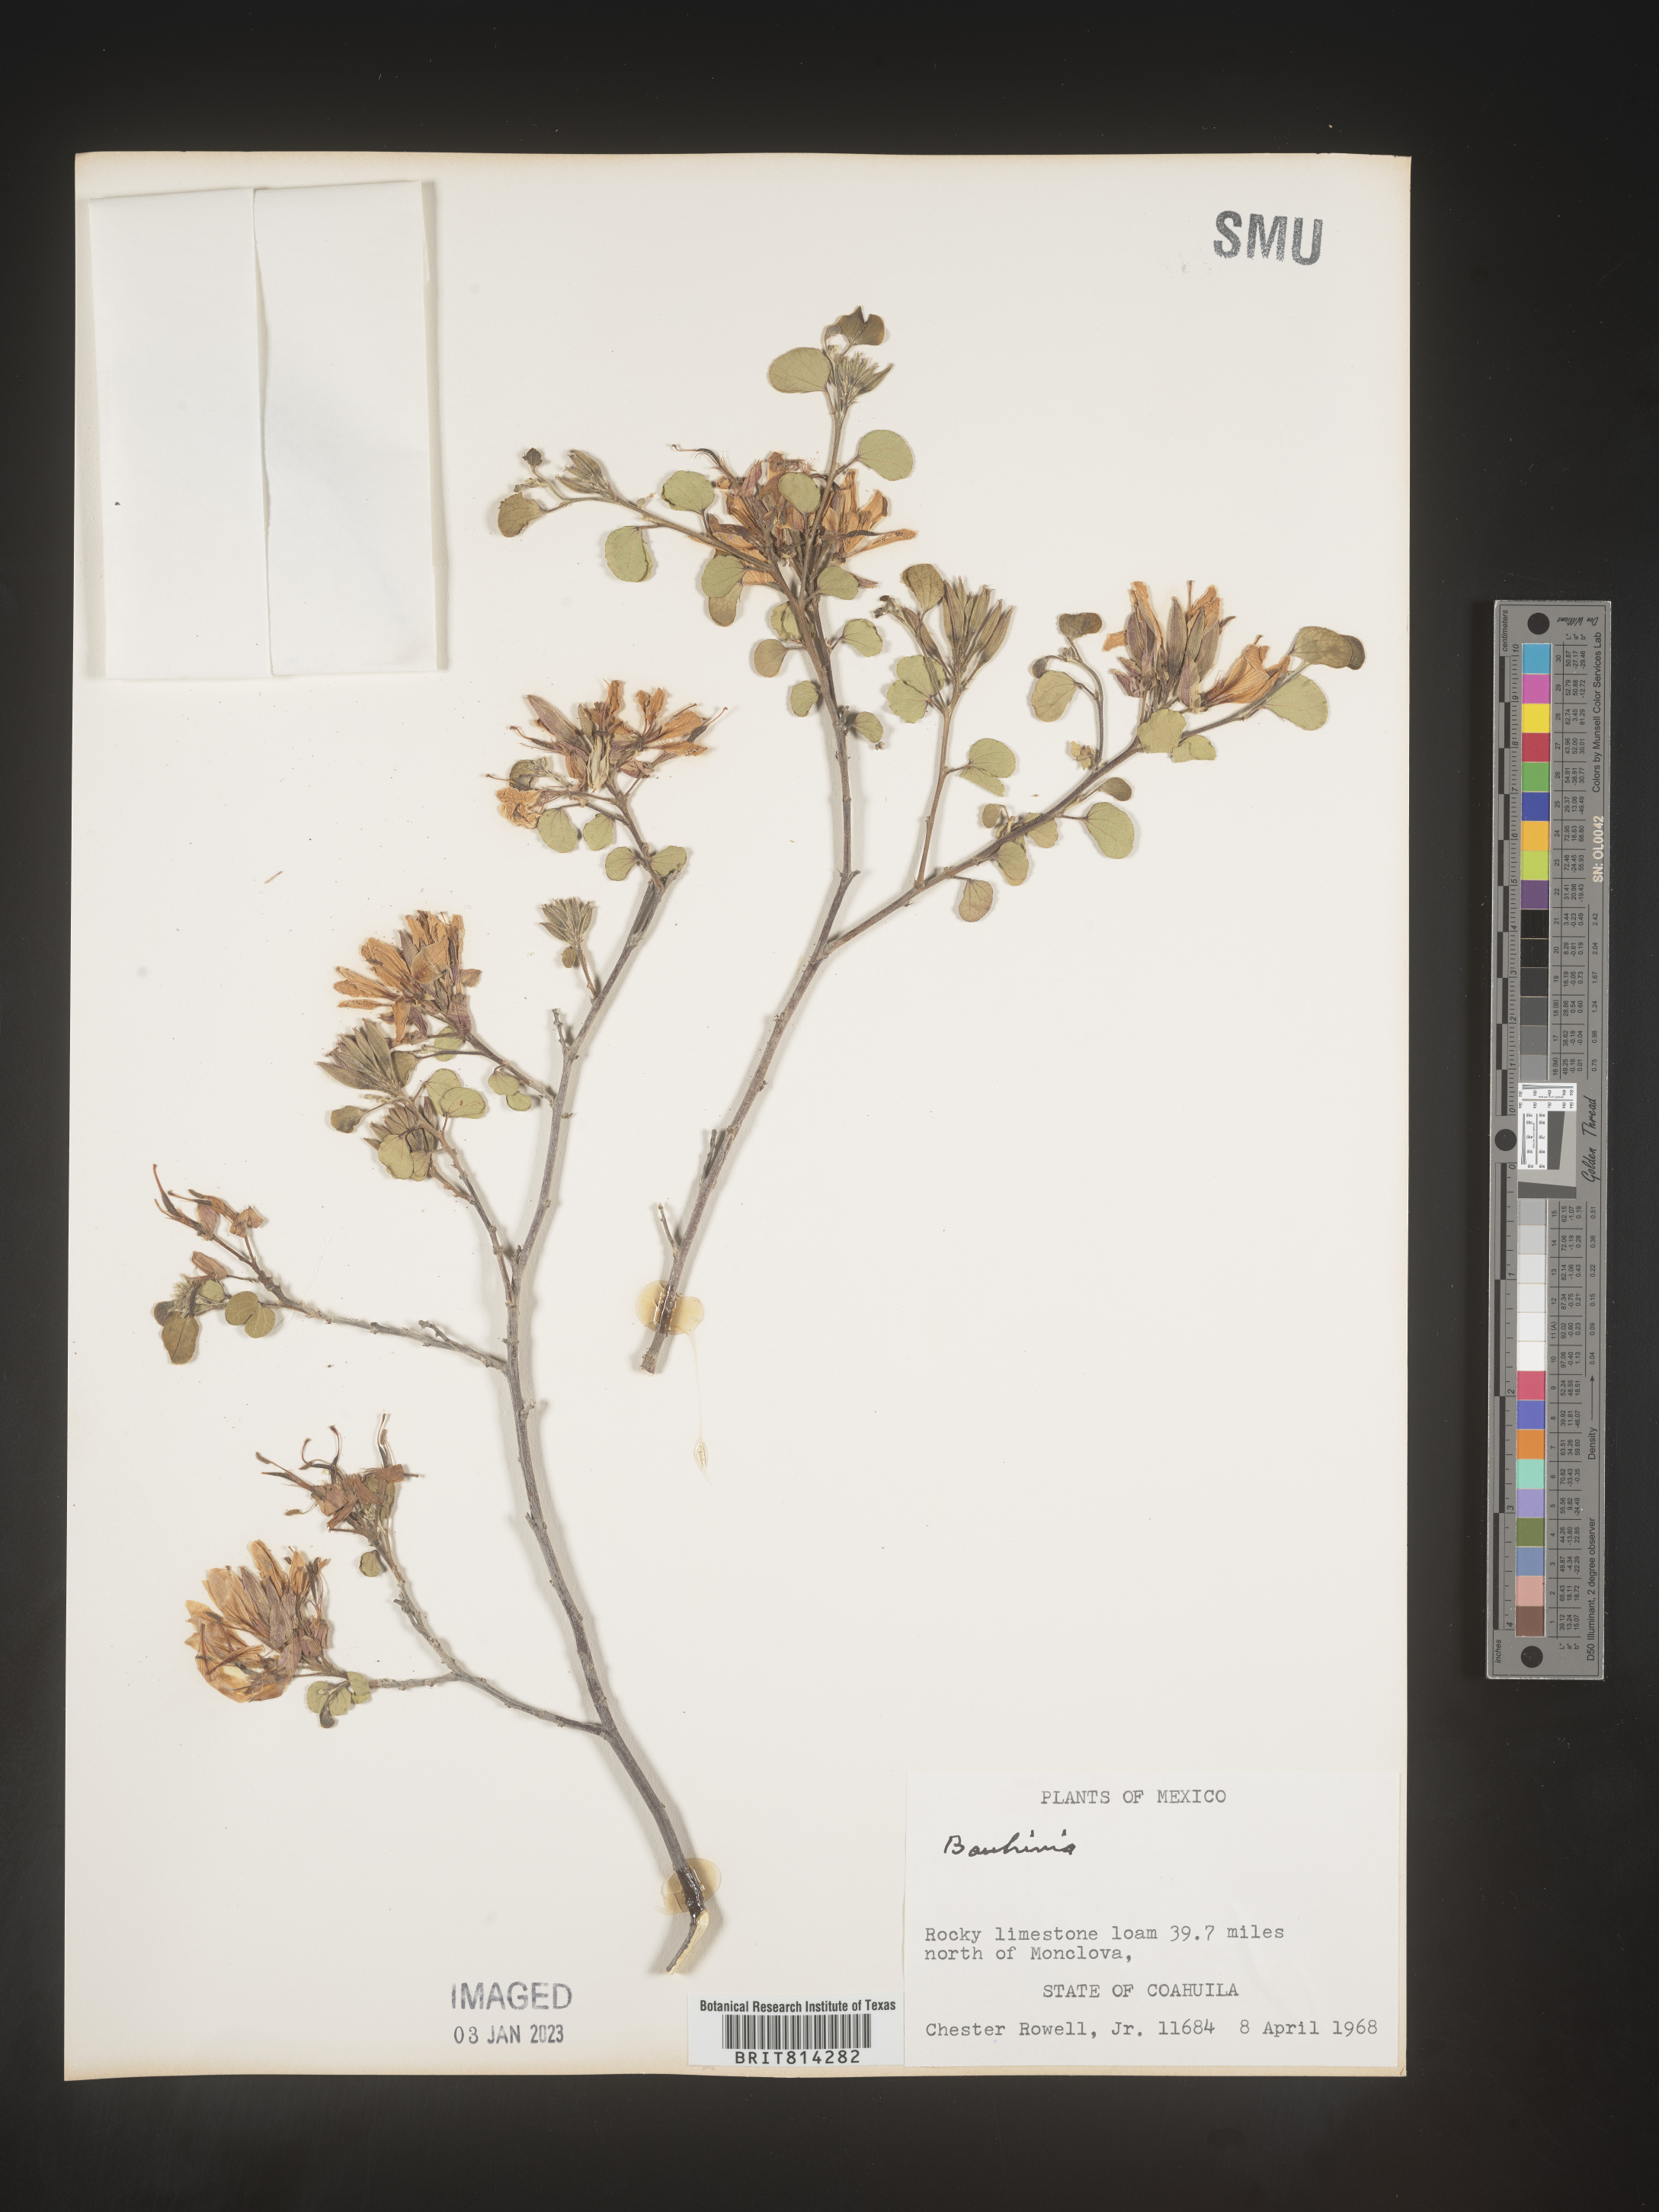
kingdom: Plantae
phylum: Tracheophyta
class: Magnoliopsida
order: Fabales
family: Fabaceae
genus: Bauhinia
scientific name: Bauhinia
